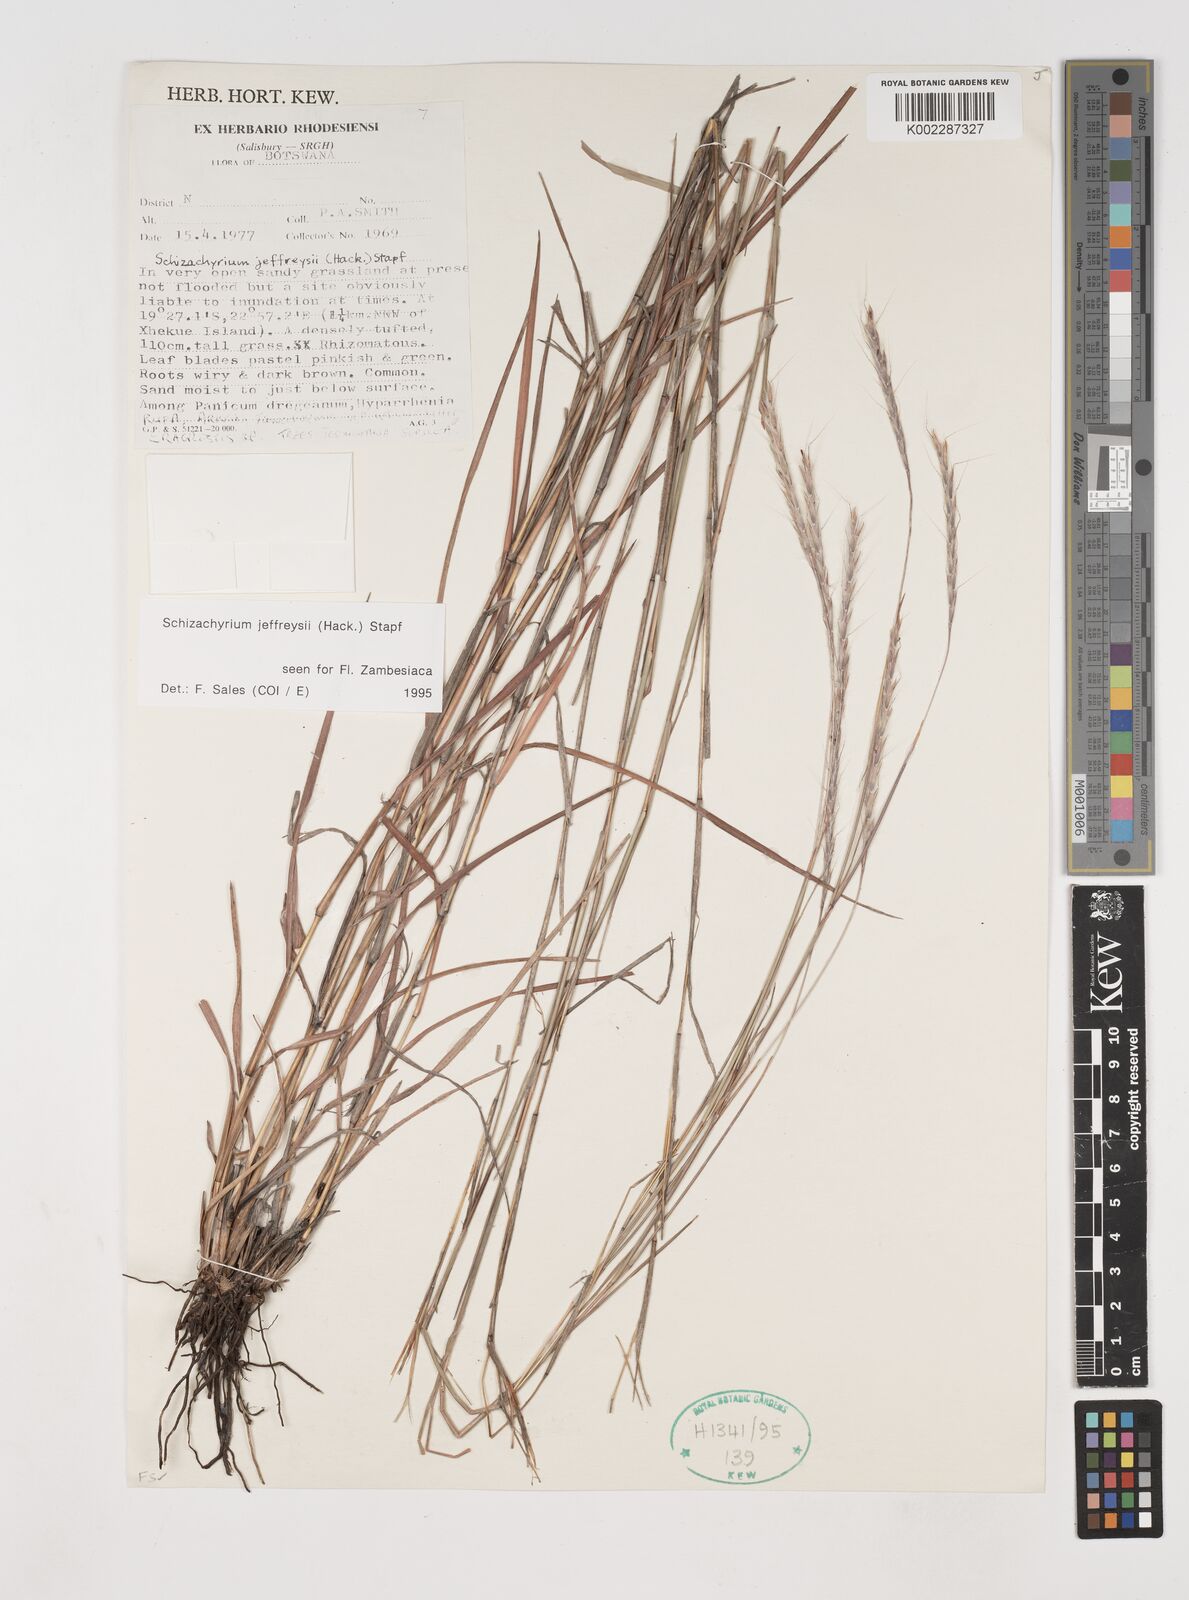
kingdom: Plantae
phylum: Tracheophyta
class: Liliopsida
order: Poales
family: Poaceae
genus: Schizachyrium
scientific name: Schizachyrium jeffreysii
